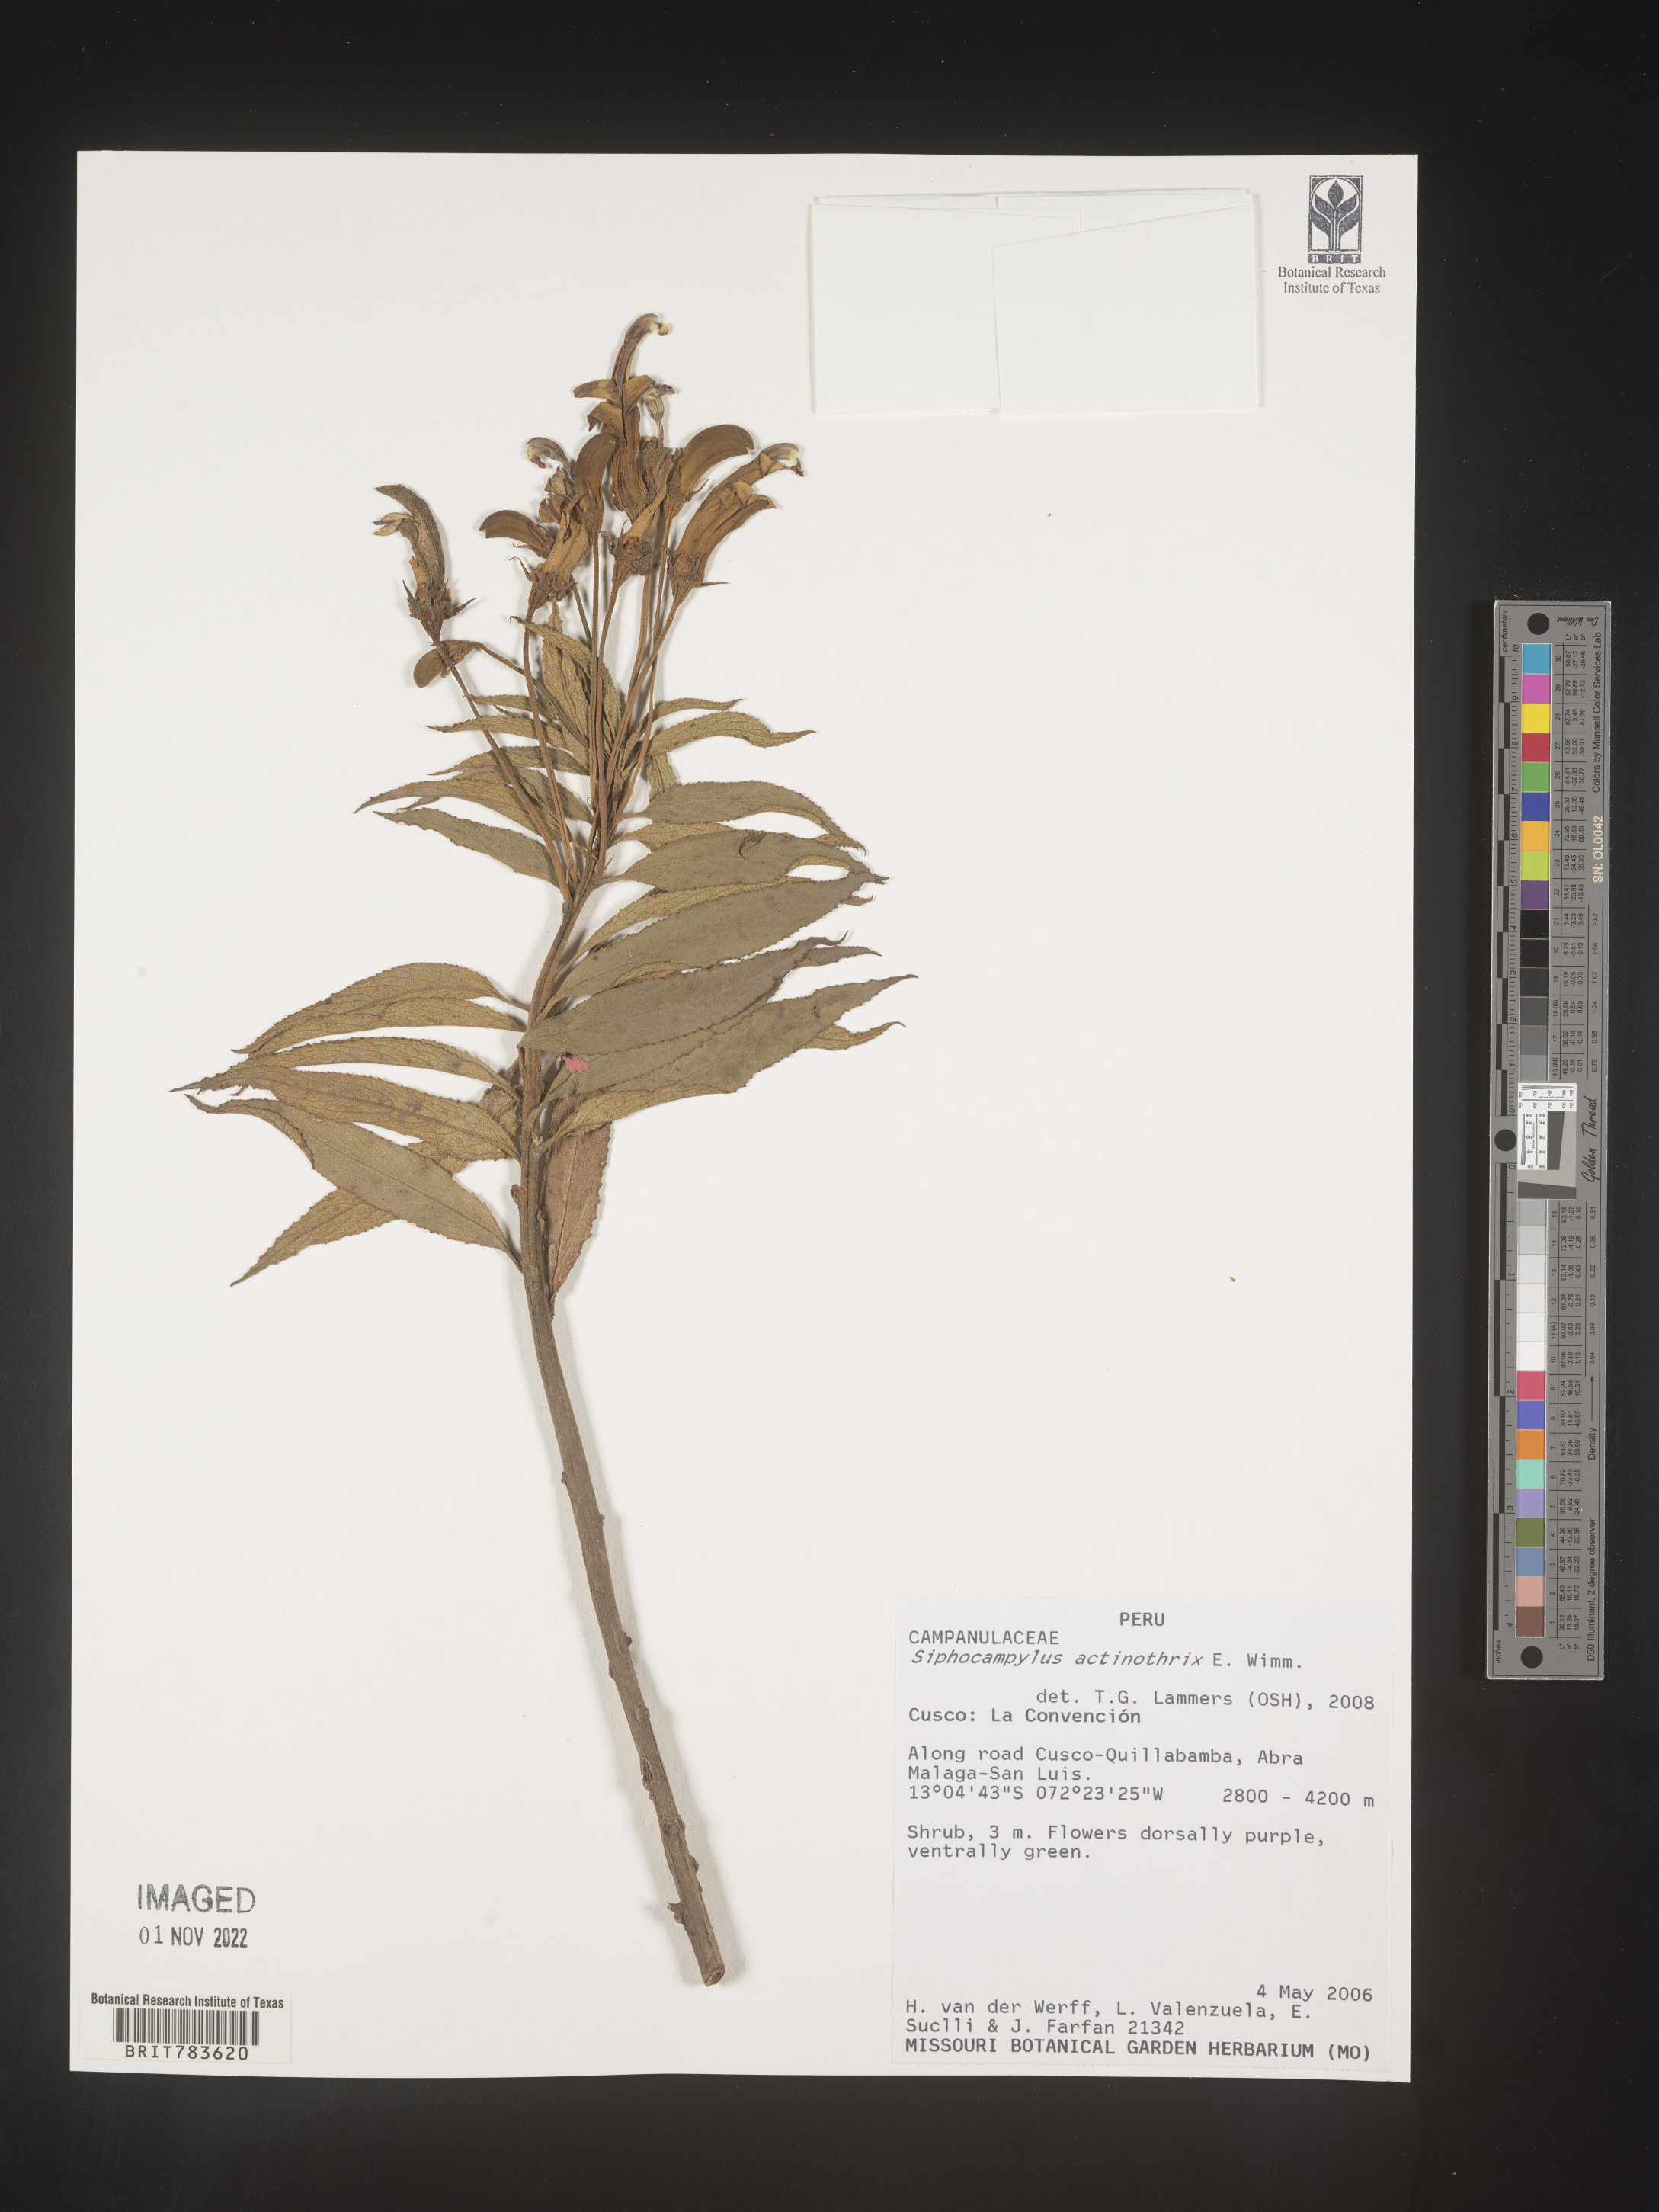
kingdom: Plantae
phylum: Tracheophyta
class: Magnoliopsida
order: Asterales
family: Campanulaceae
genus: Siphocampylus
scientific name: Siphocampylus
